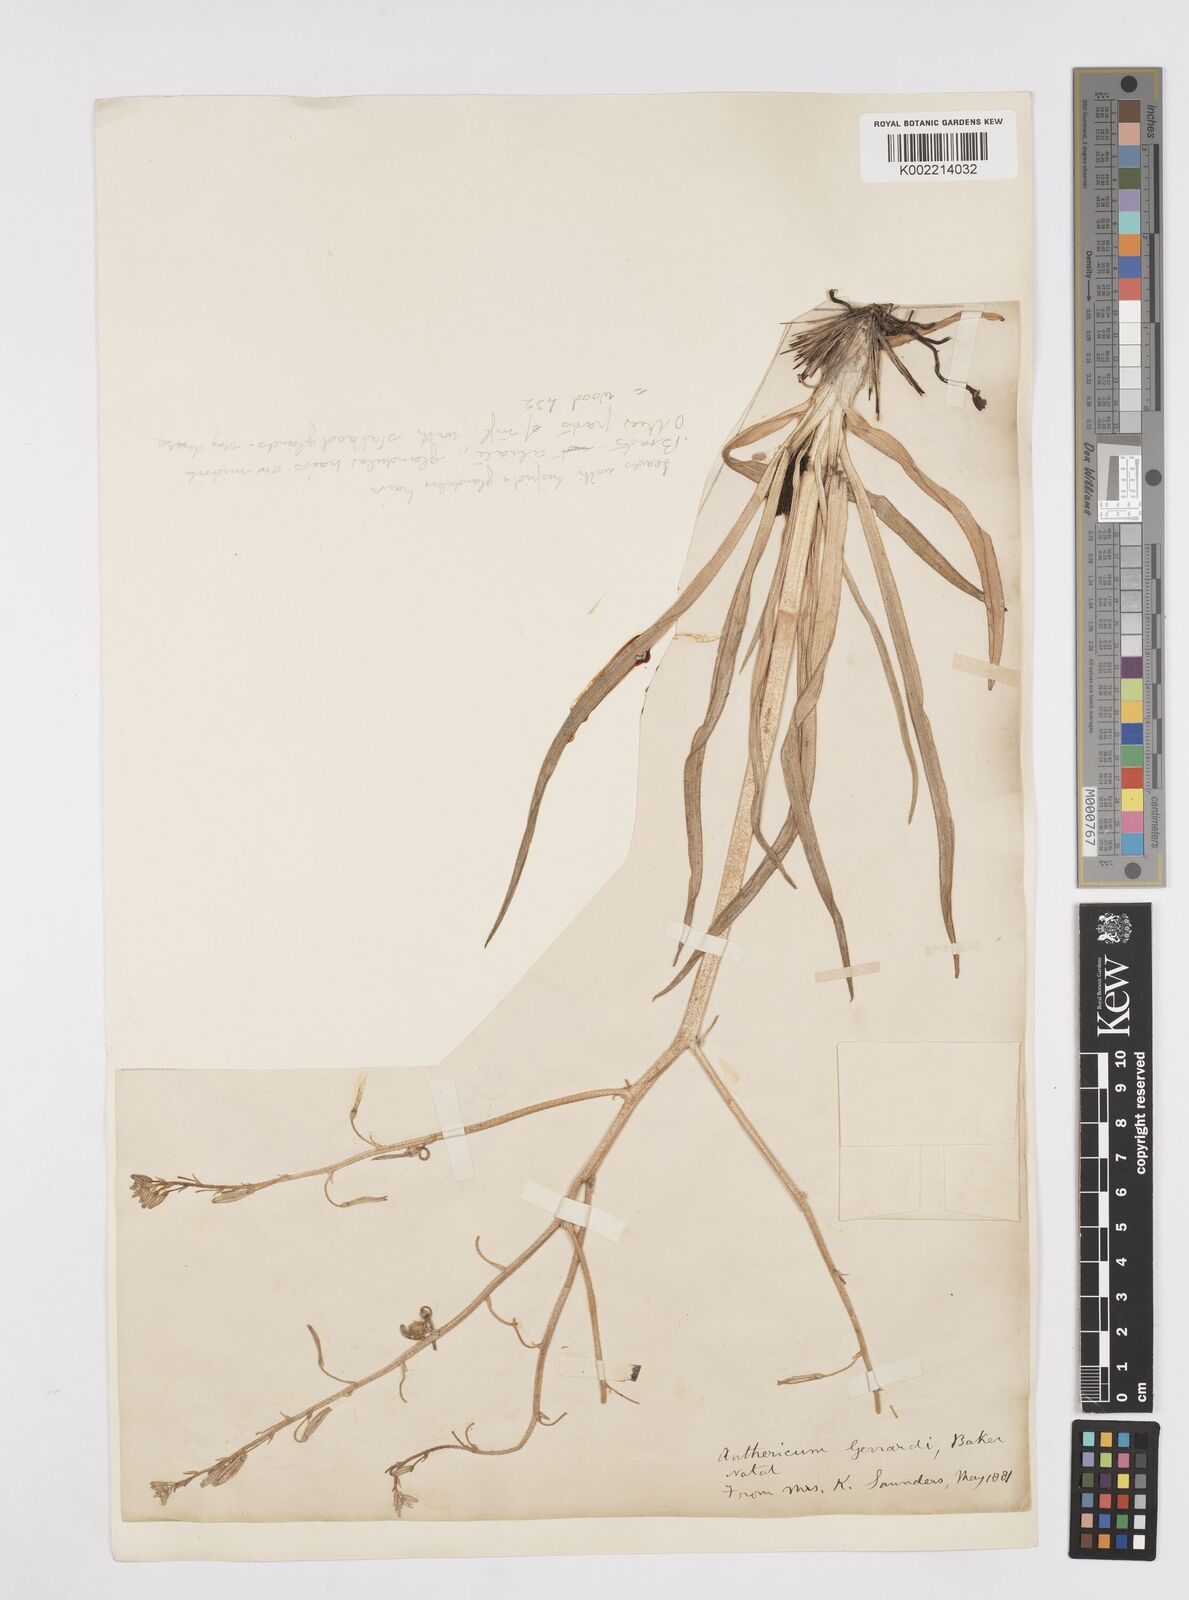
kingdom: Plantae
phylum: Tracheophyta
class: Liliopsida
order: Asparagales
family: Asphodelaceae
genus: Trachyandra
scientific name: Trachyandra gerrardii
